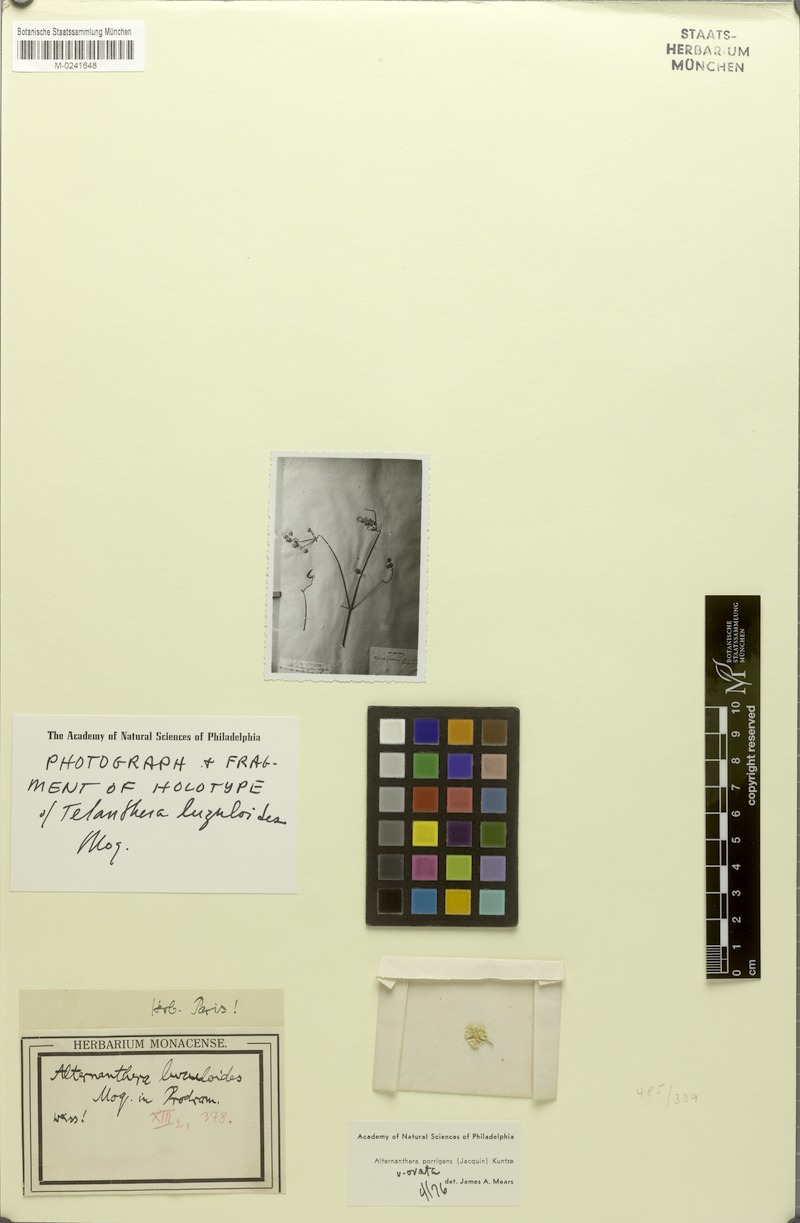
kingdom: Plantae
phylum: Tracheophyta
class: Magnoliopsida
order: Caryophyllales
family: Amaranthaceae
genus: Alternanthera
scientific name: Alternanthera porrigens
